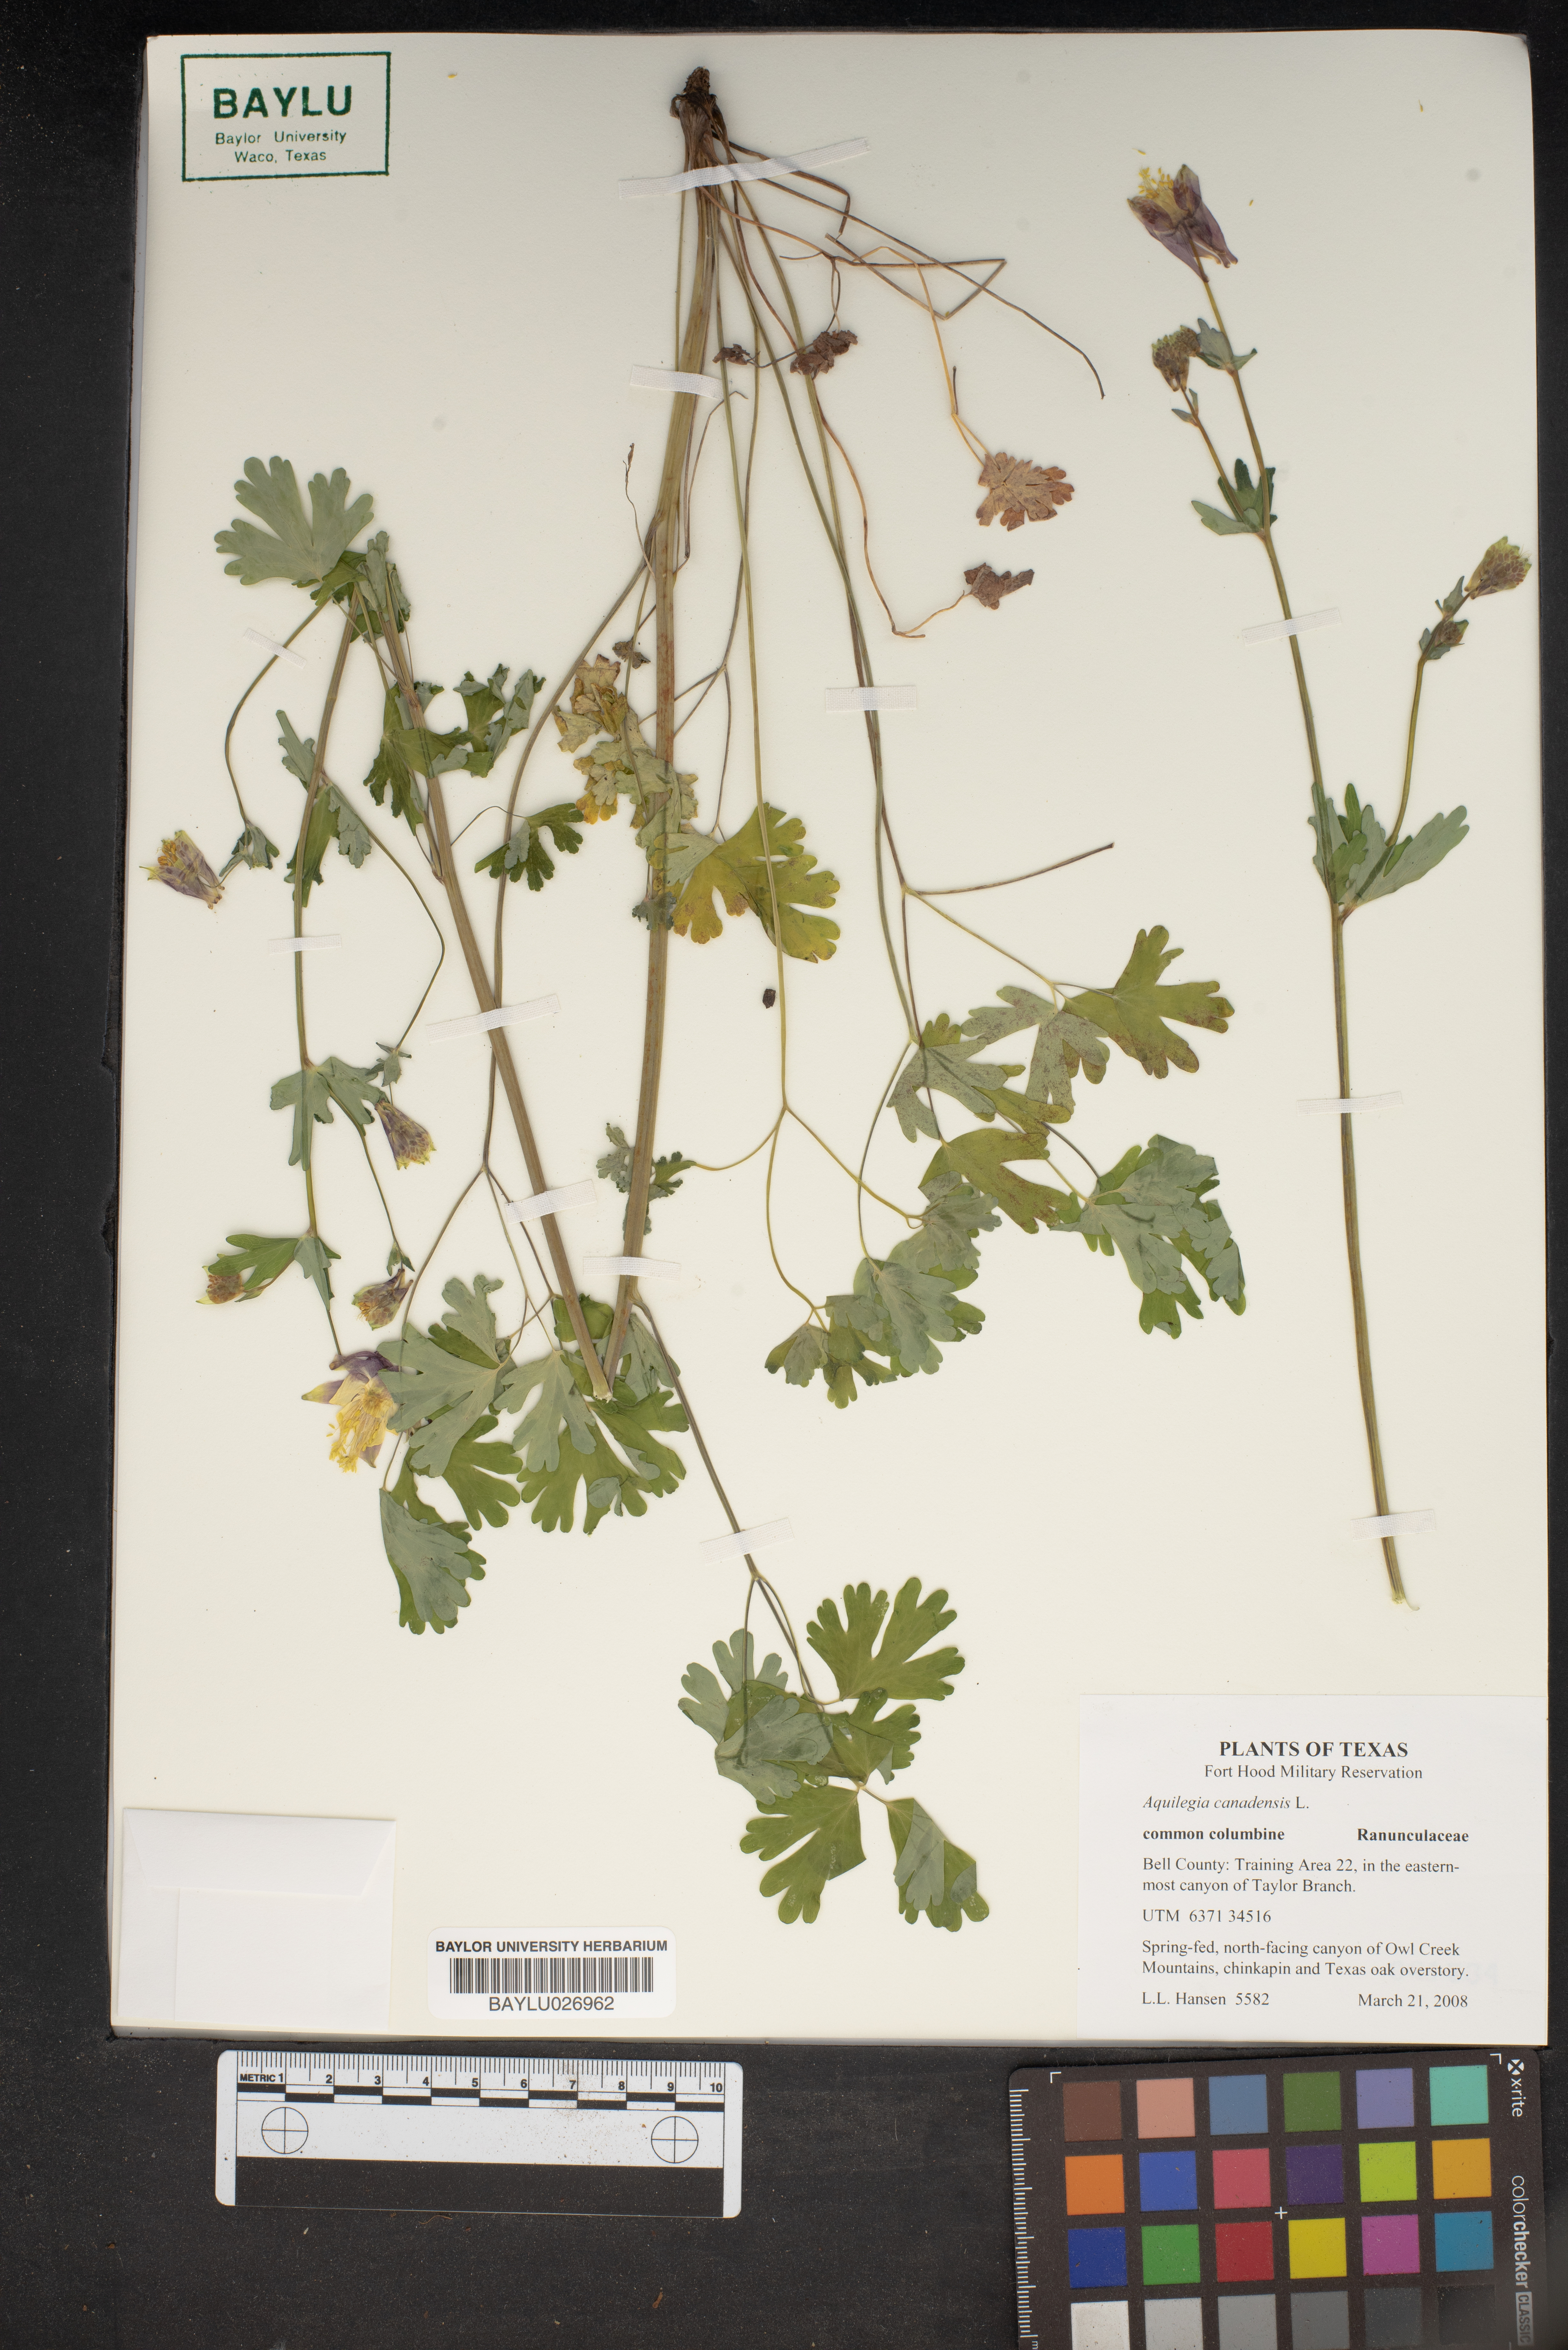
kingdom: Plantae
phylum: Tracheophyta
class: Magnoliopsida
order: Ranunculales
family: Ranunculaceae
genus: Aquilegia
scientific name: Aquilegia canadensis
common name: American columbine
